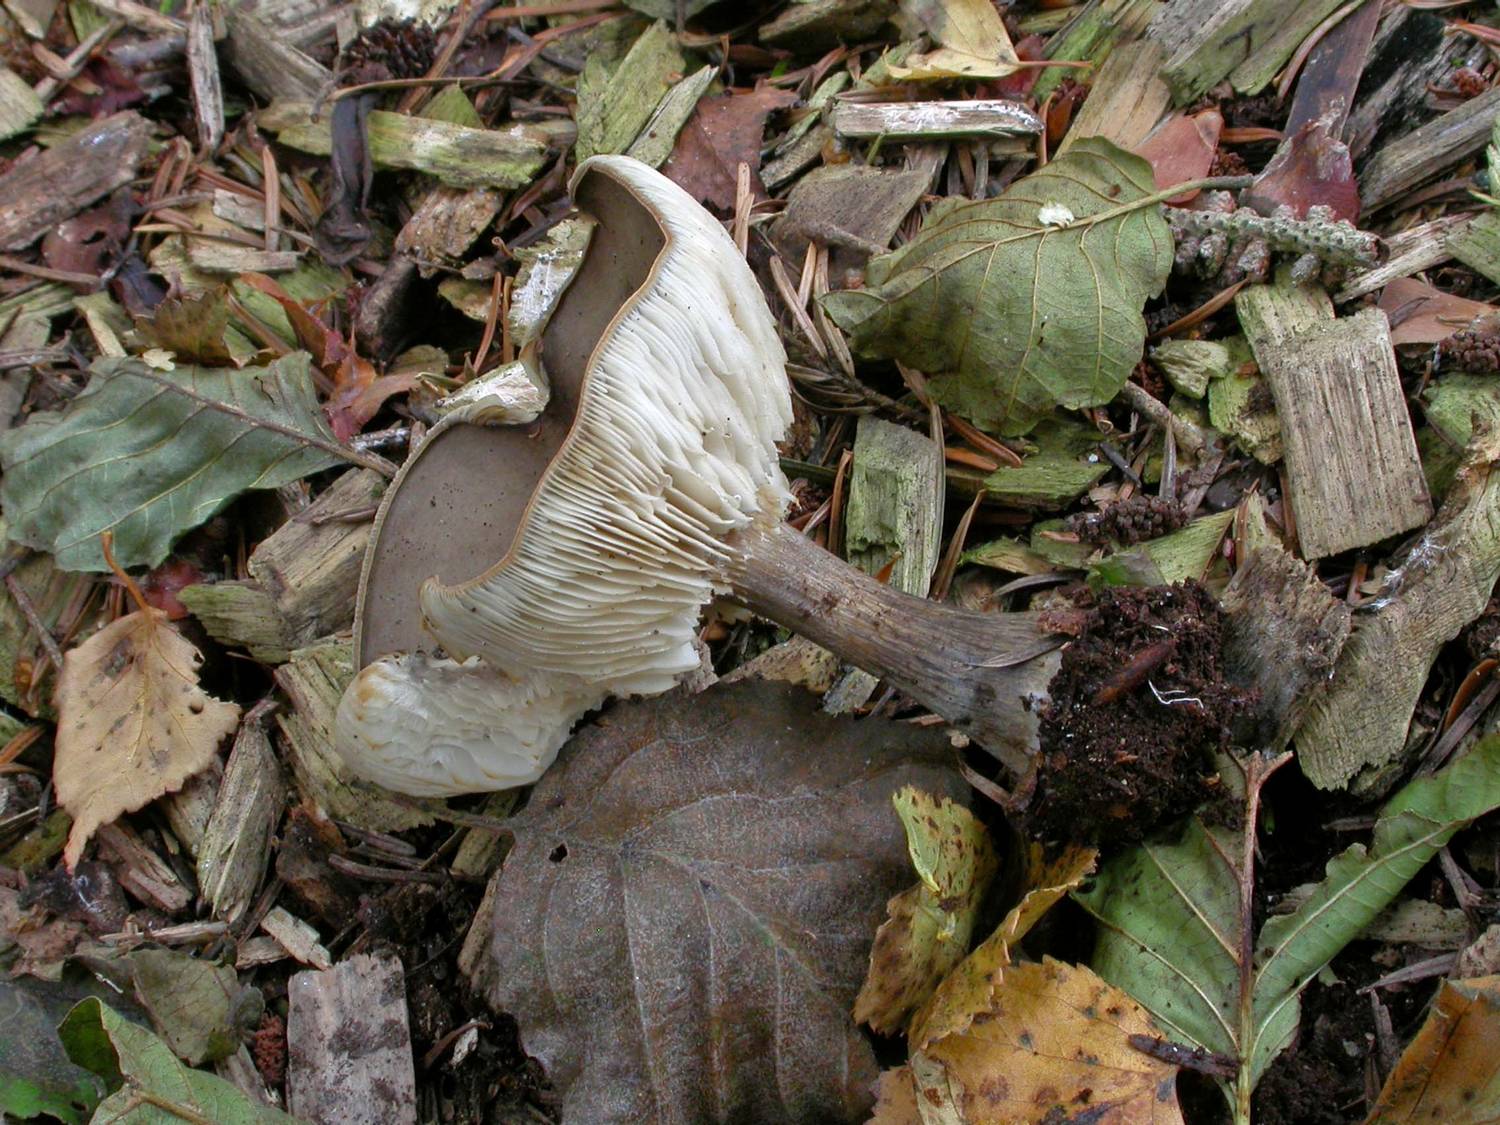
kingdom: Fungi
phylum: Basidiomycota
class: Agaricomycetes
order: Agaricales
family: Tricholomataceae
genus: Melanoleuca
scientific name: Melanoleuca polioleuca
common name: hvidbladet munkehat
